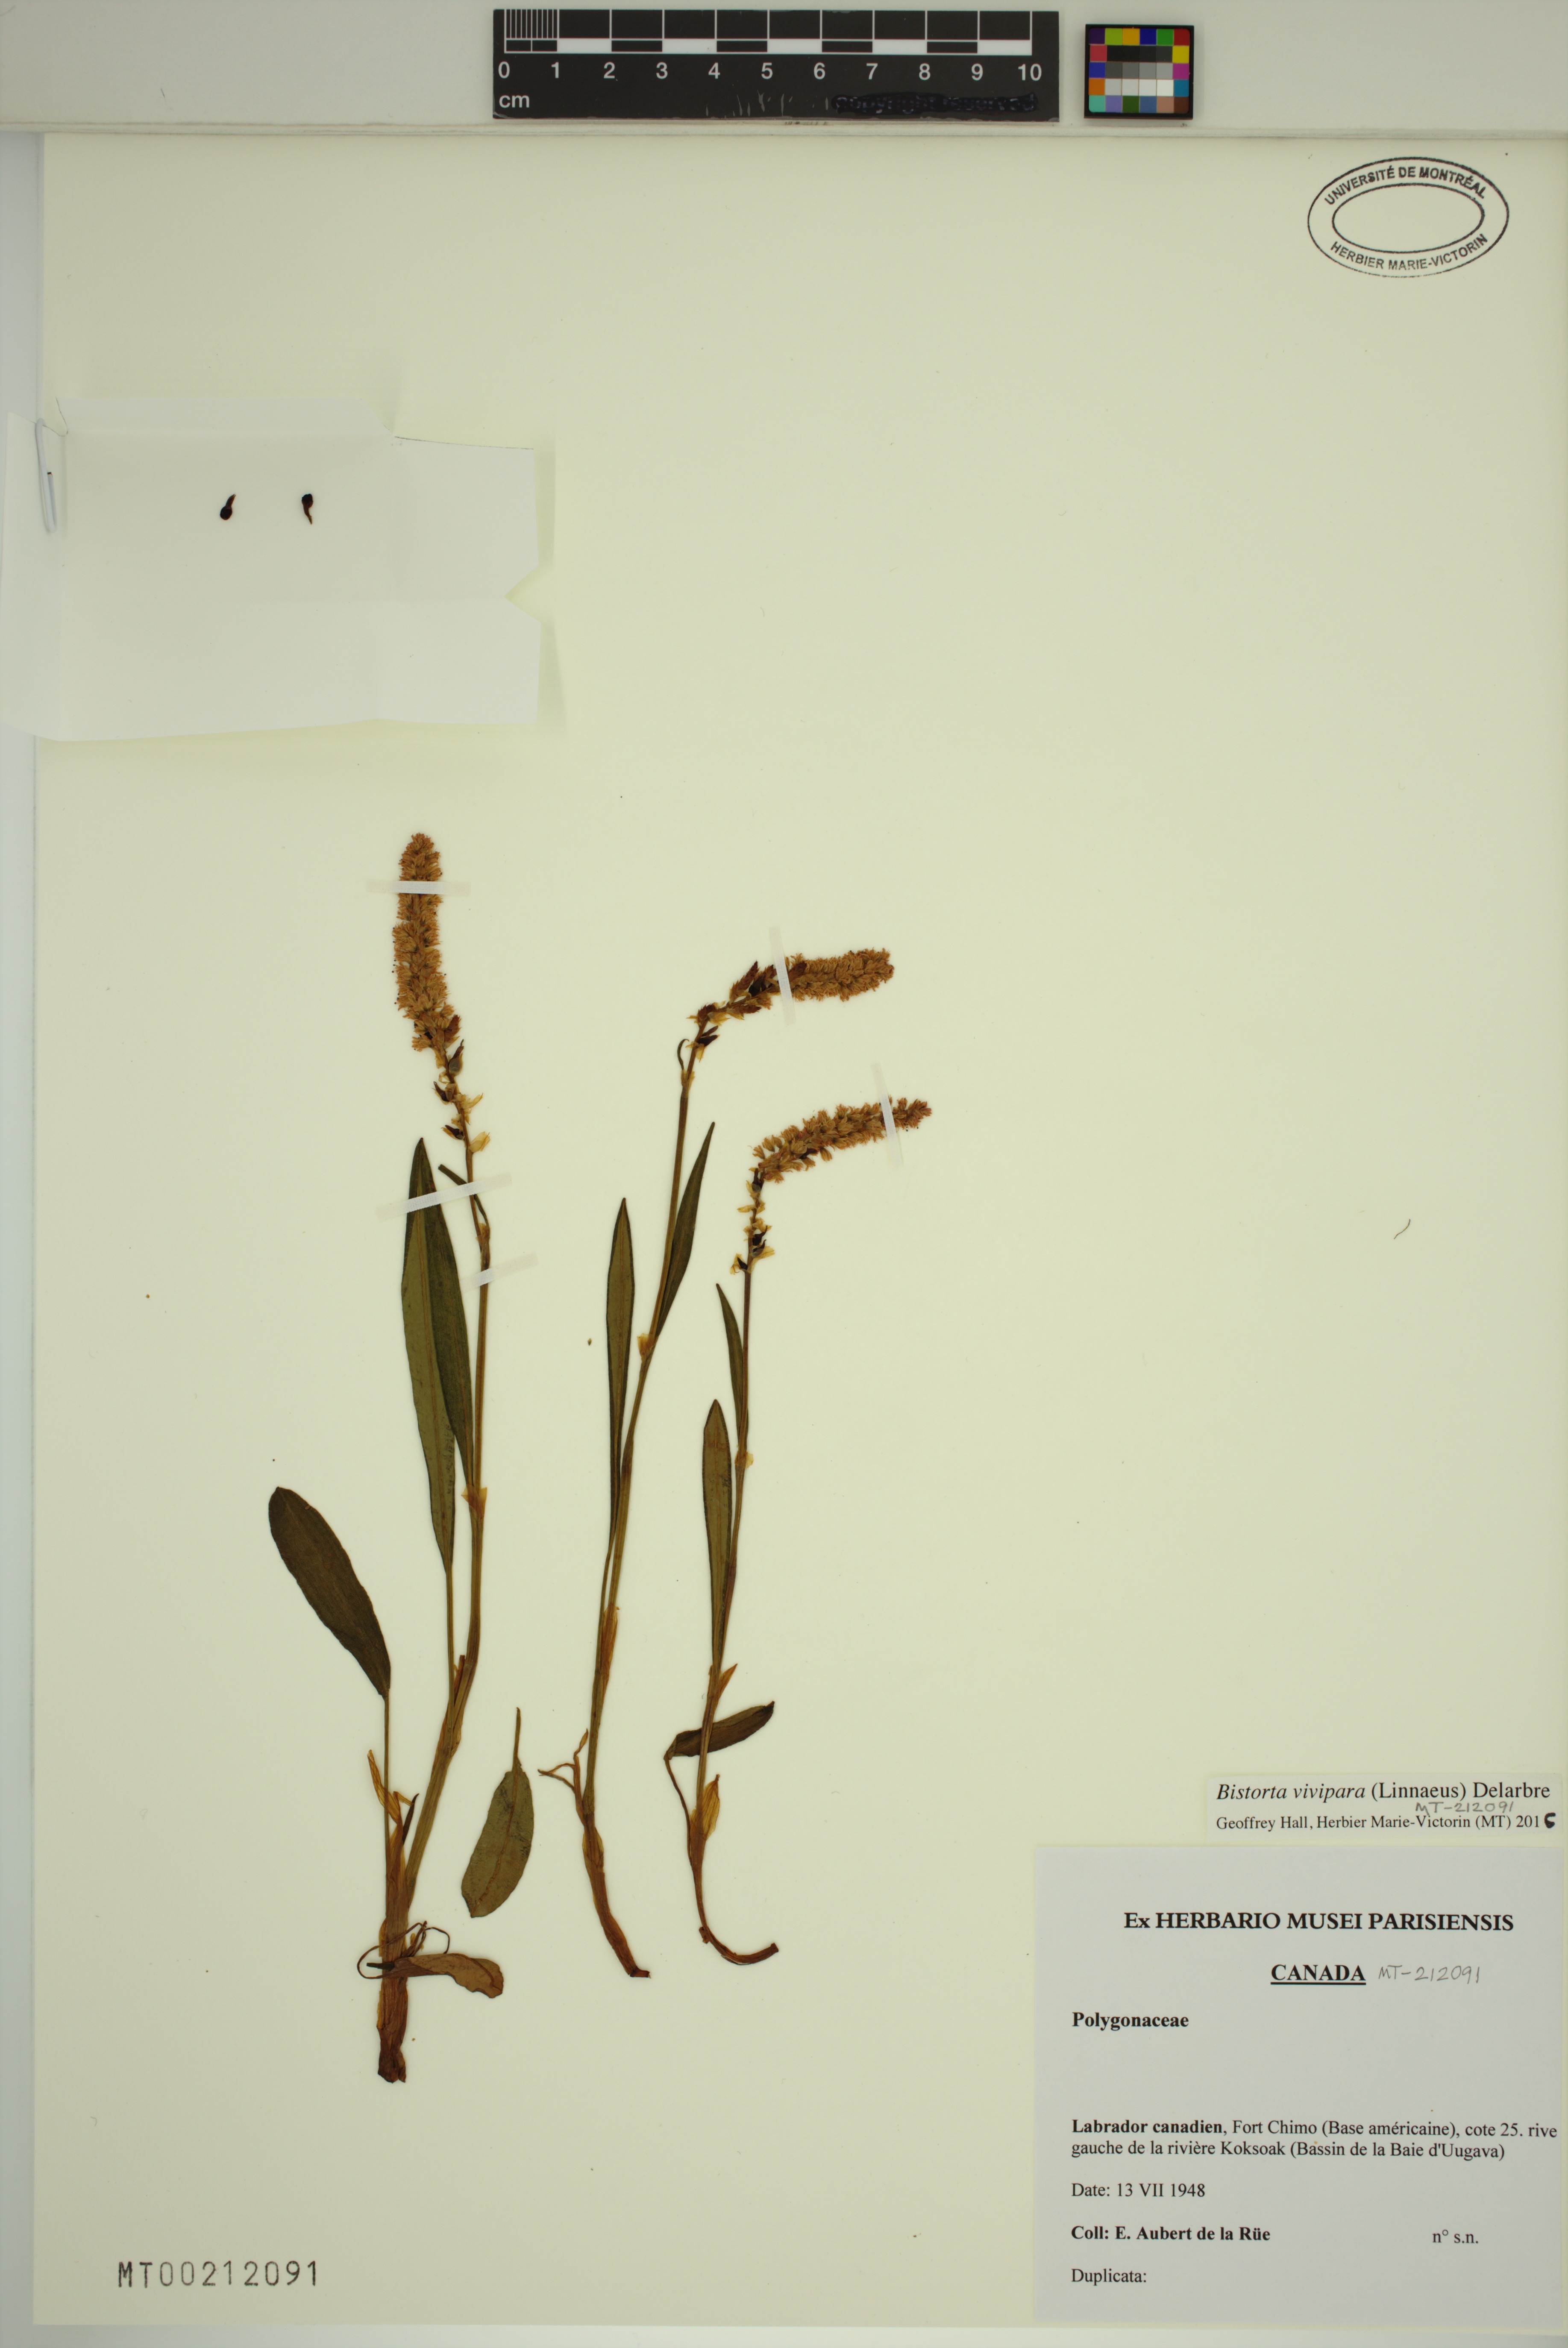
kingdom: Plantae
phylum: Tracheophyta
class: Magnoliopsida
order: Caryophyllales
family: Polygonaceae
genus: Bistorta
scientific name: Bistorta vivipara
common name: Alpine bistort
